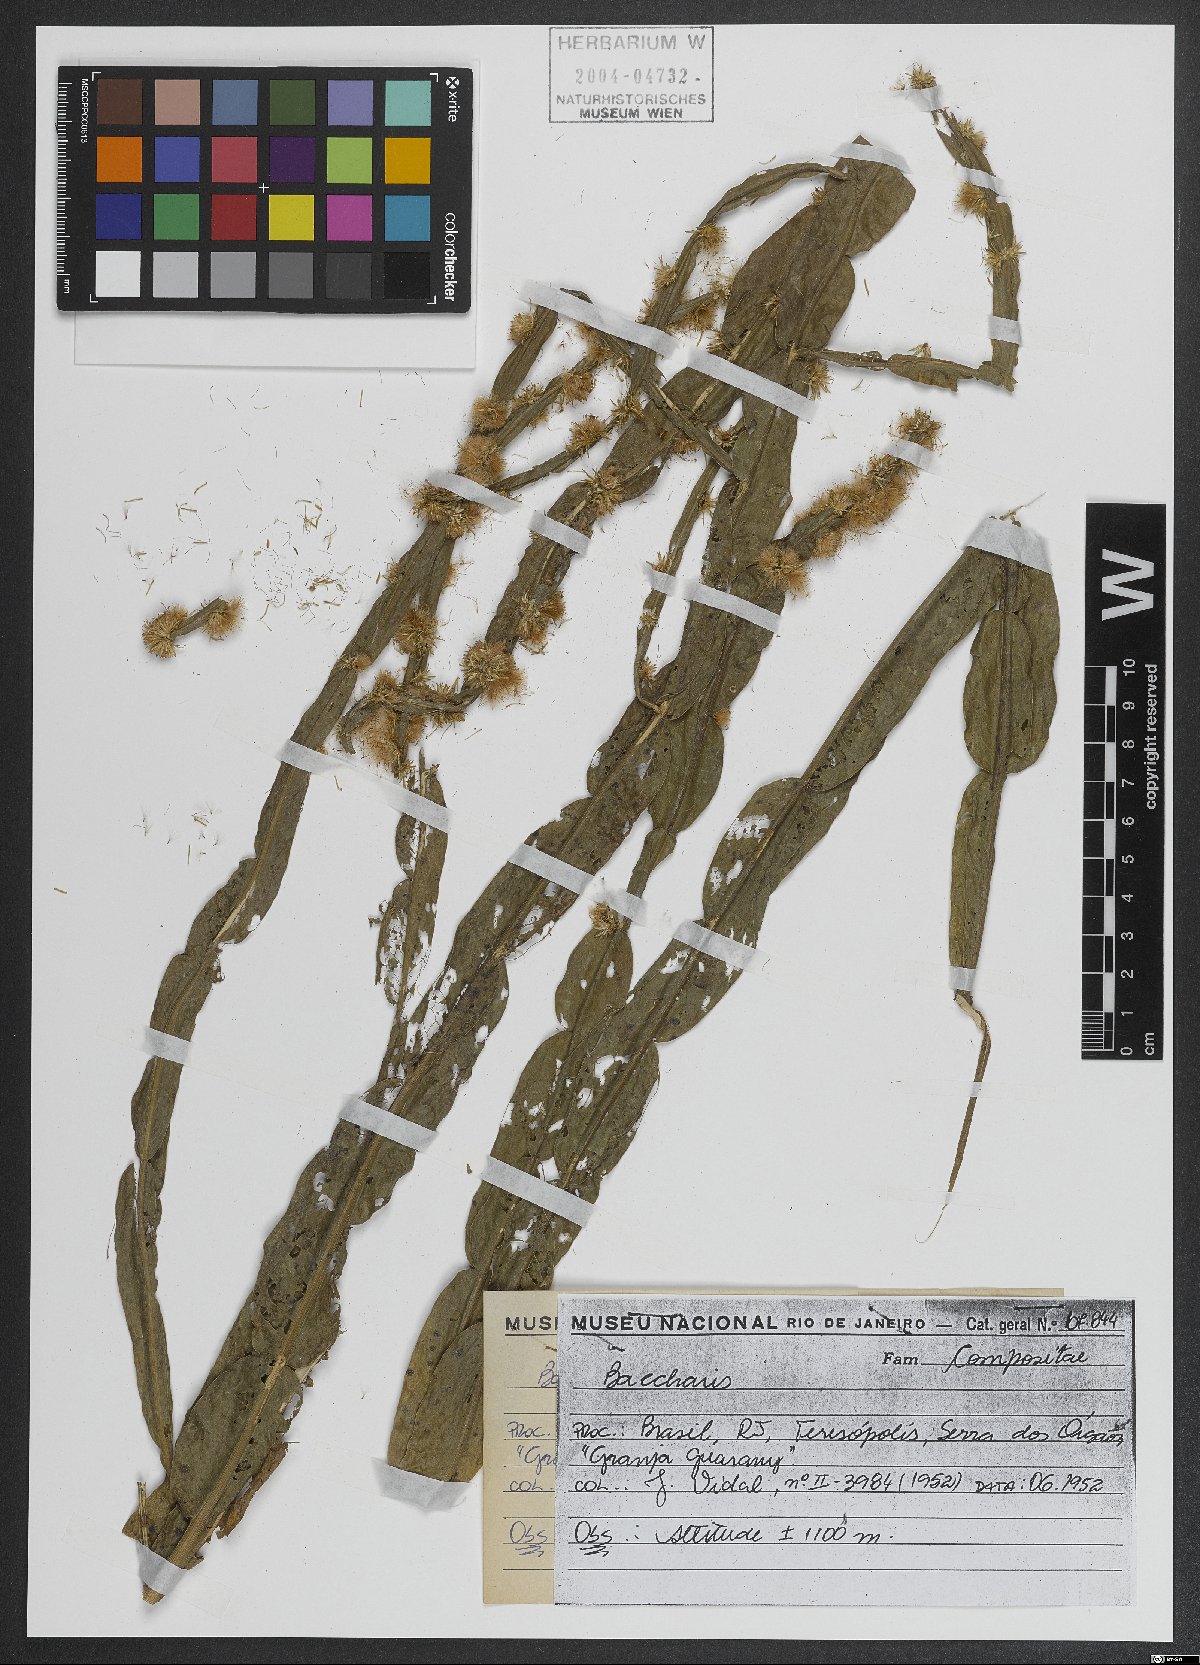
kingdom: Plantae
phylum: Tracheophyta
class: Magnoliopsida
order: Asterales
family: Asteraceae
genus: Baccharis
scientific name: Baccharis
